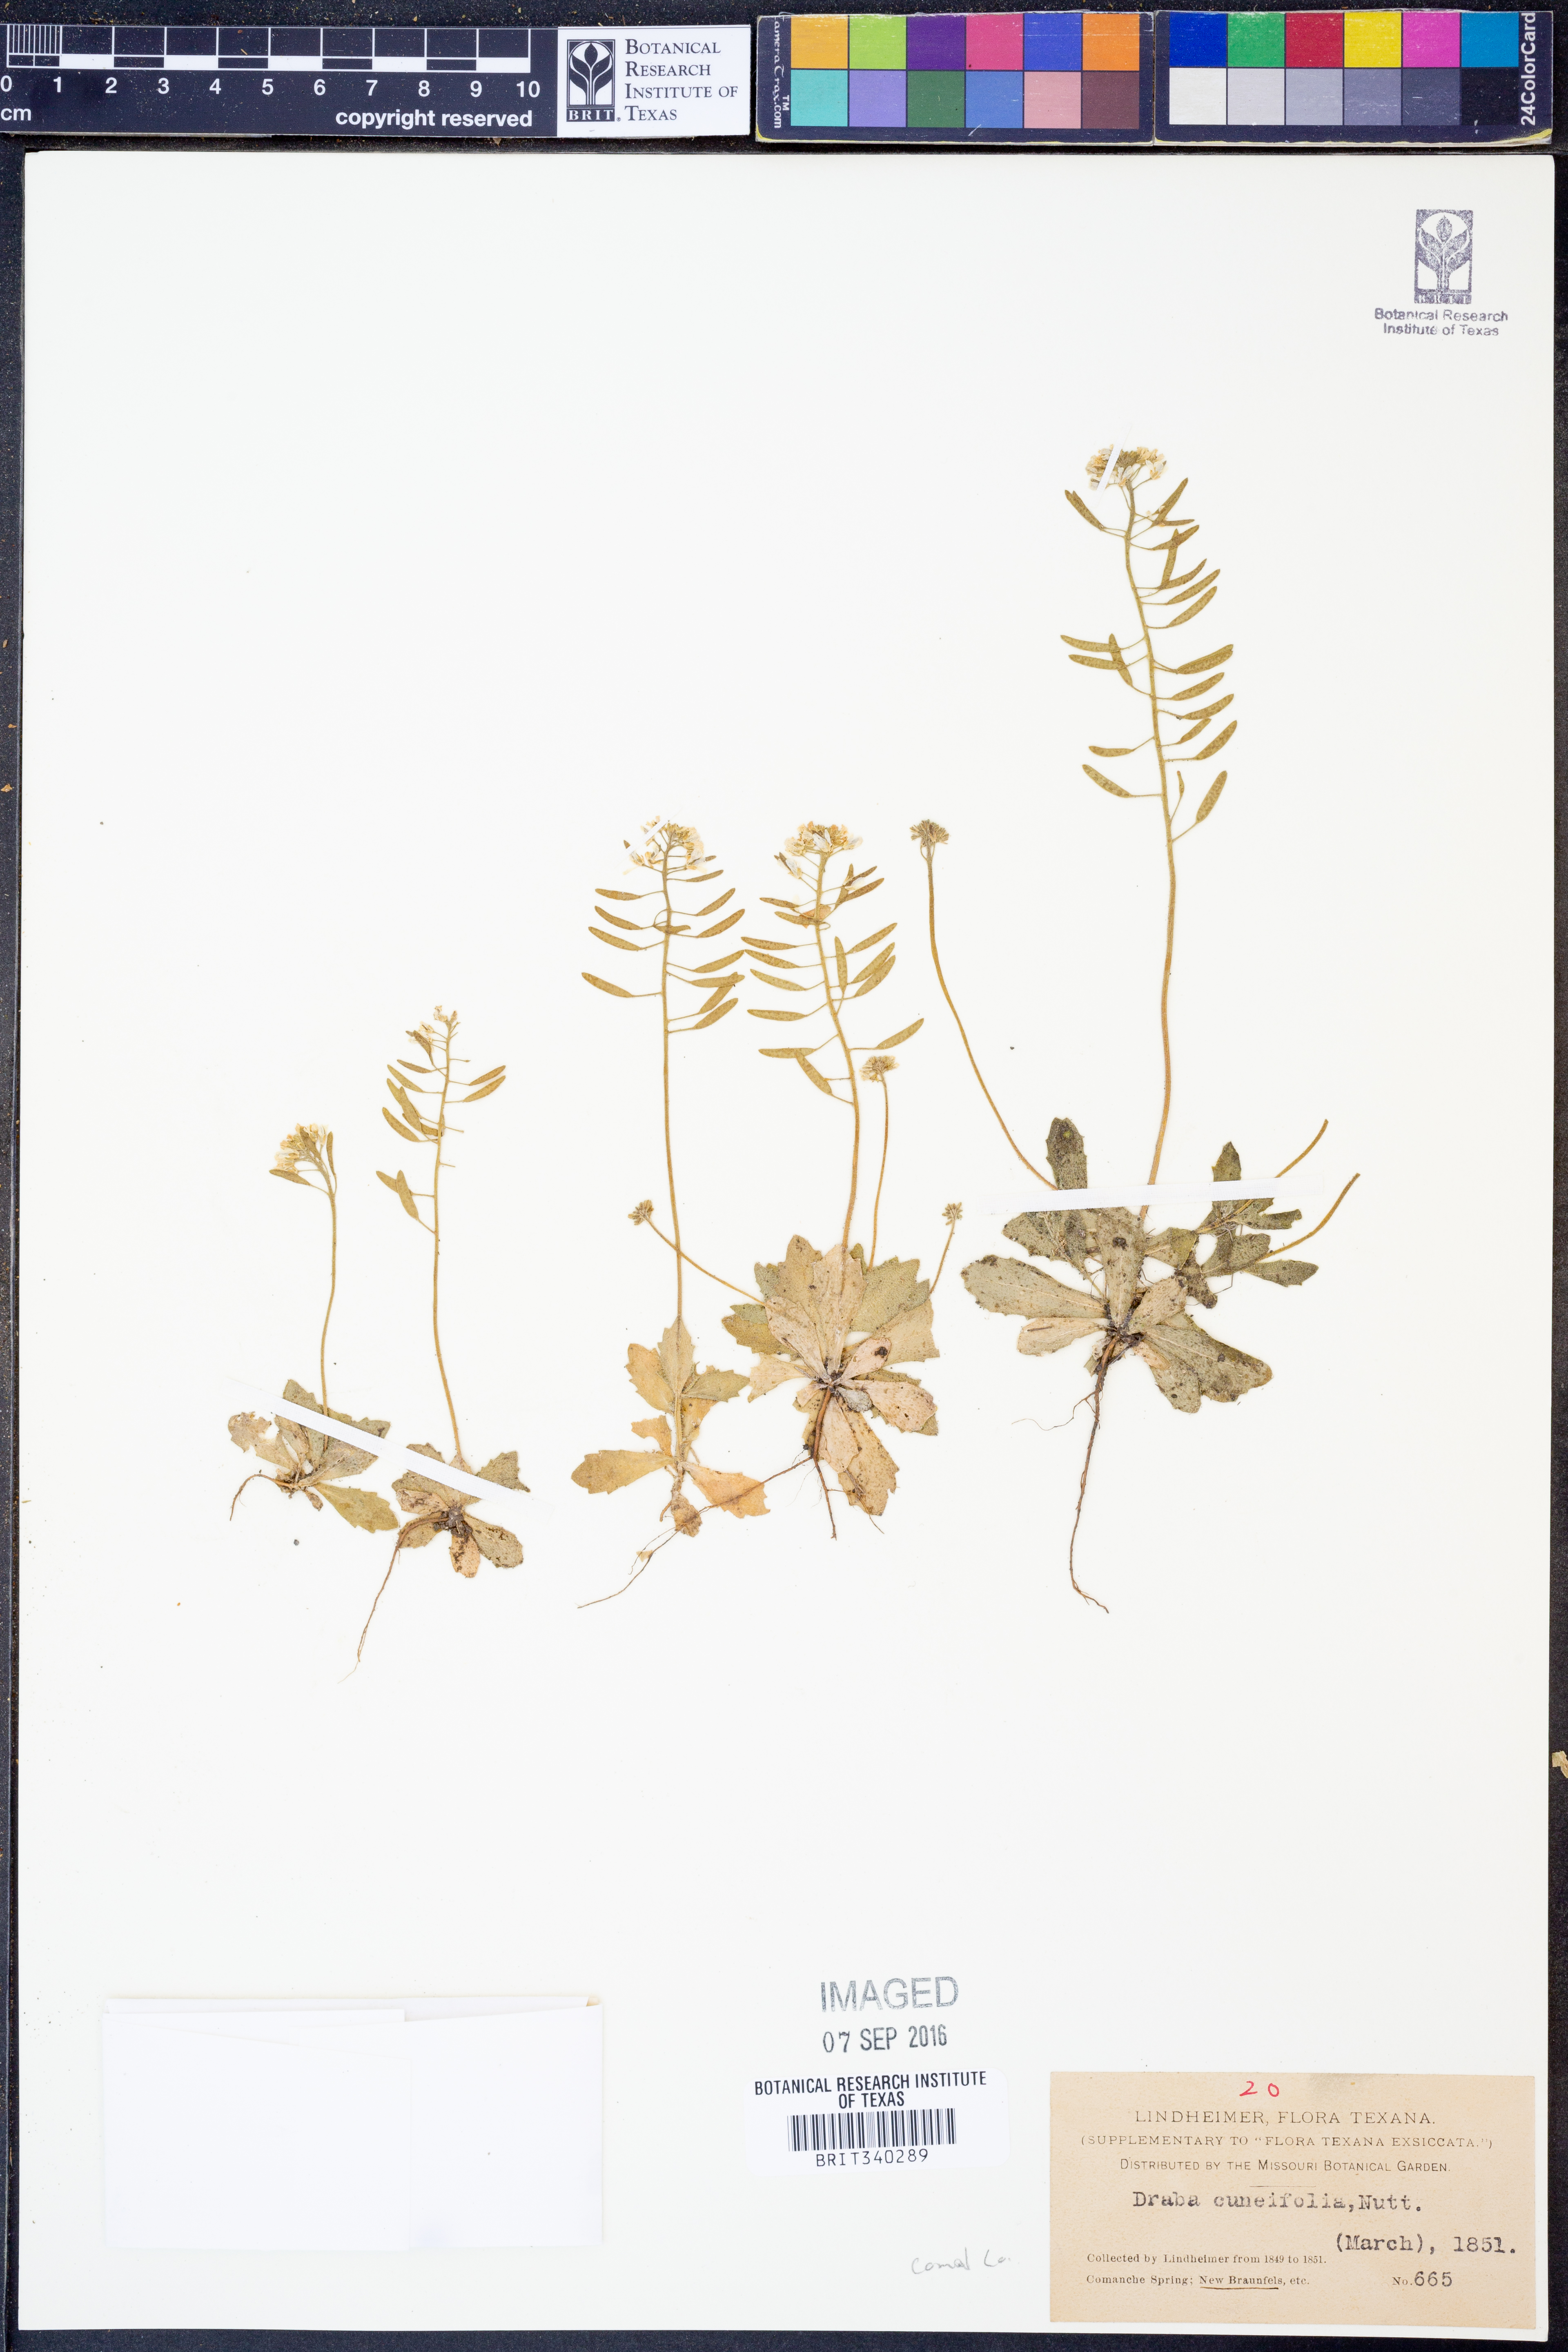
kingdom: Plantae
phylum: Tracheophyta
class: Magnoliopsida
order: Brassicales
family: Brassicaceae
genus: Tomostima
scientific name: Tomostima cuneifolia
